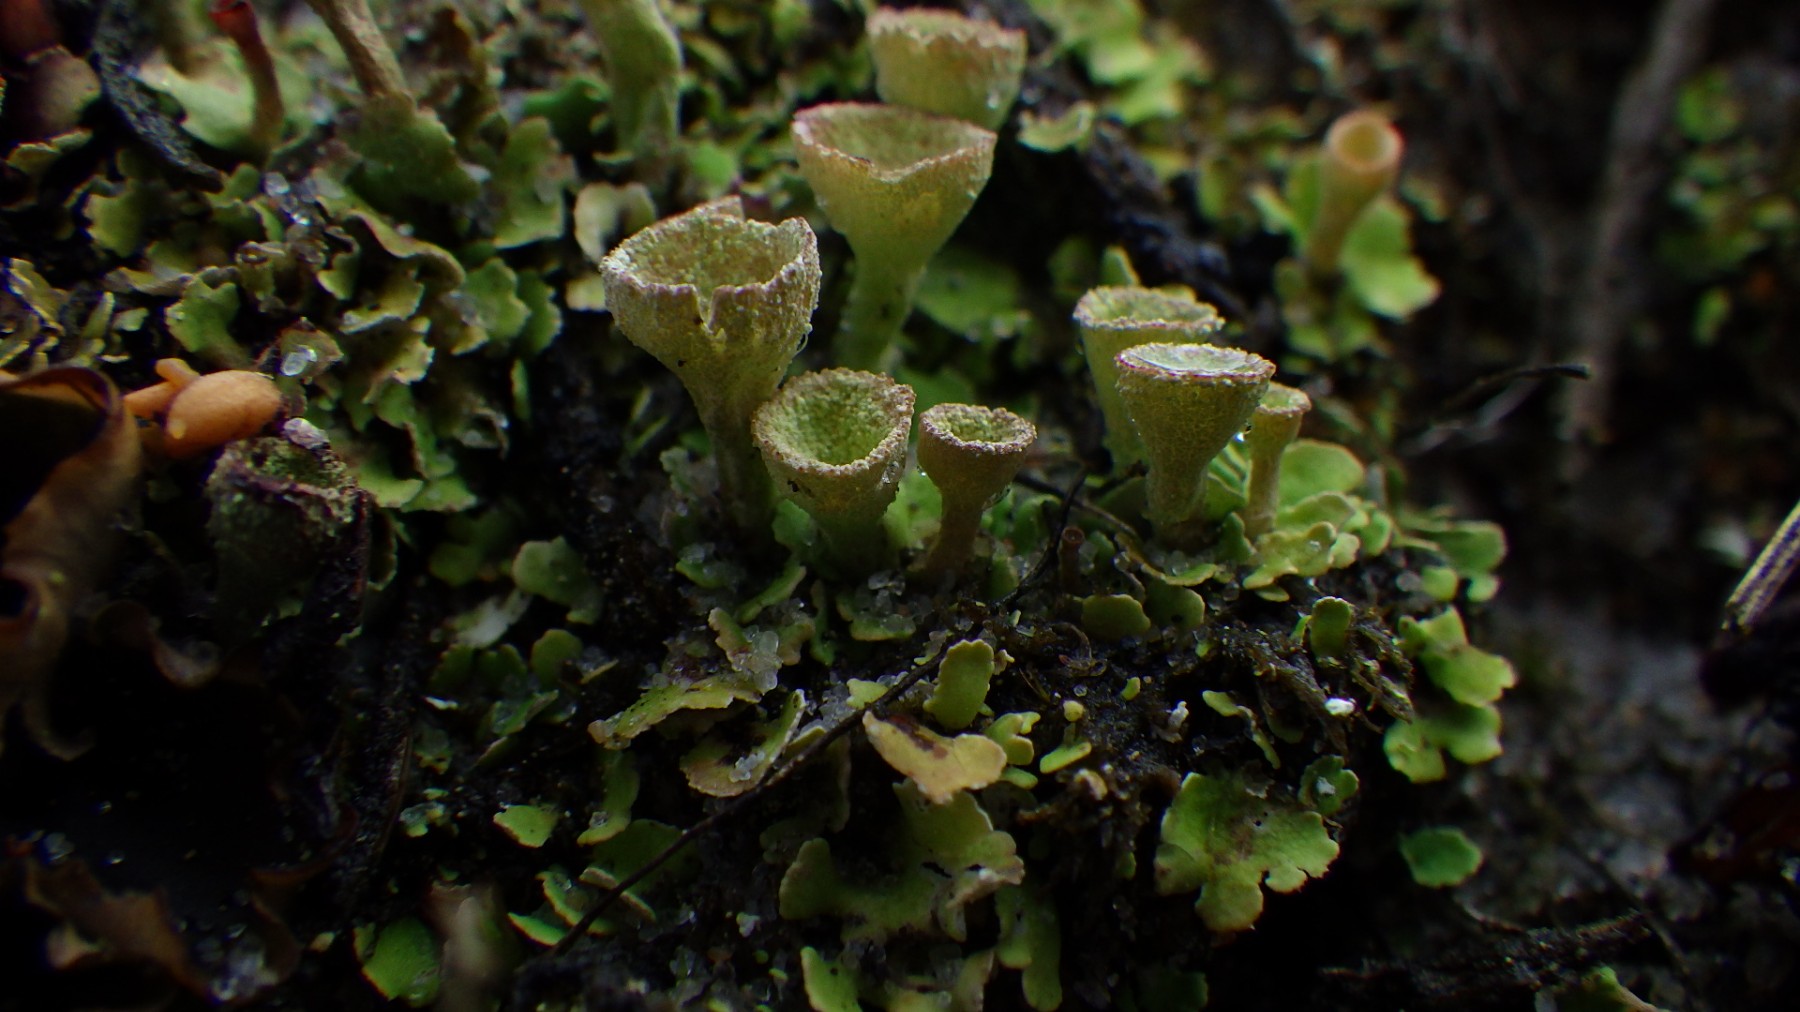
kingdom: Fungi
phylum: Ascomycota
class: Lecanoromycetes
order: Lecanorales
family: Cladoniaceae
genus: Cladonia
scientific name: Cladonia humilis
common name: lav bægerlav
